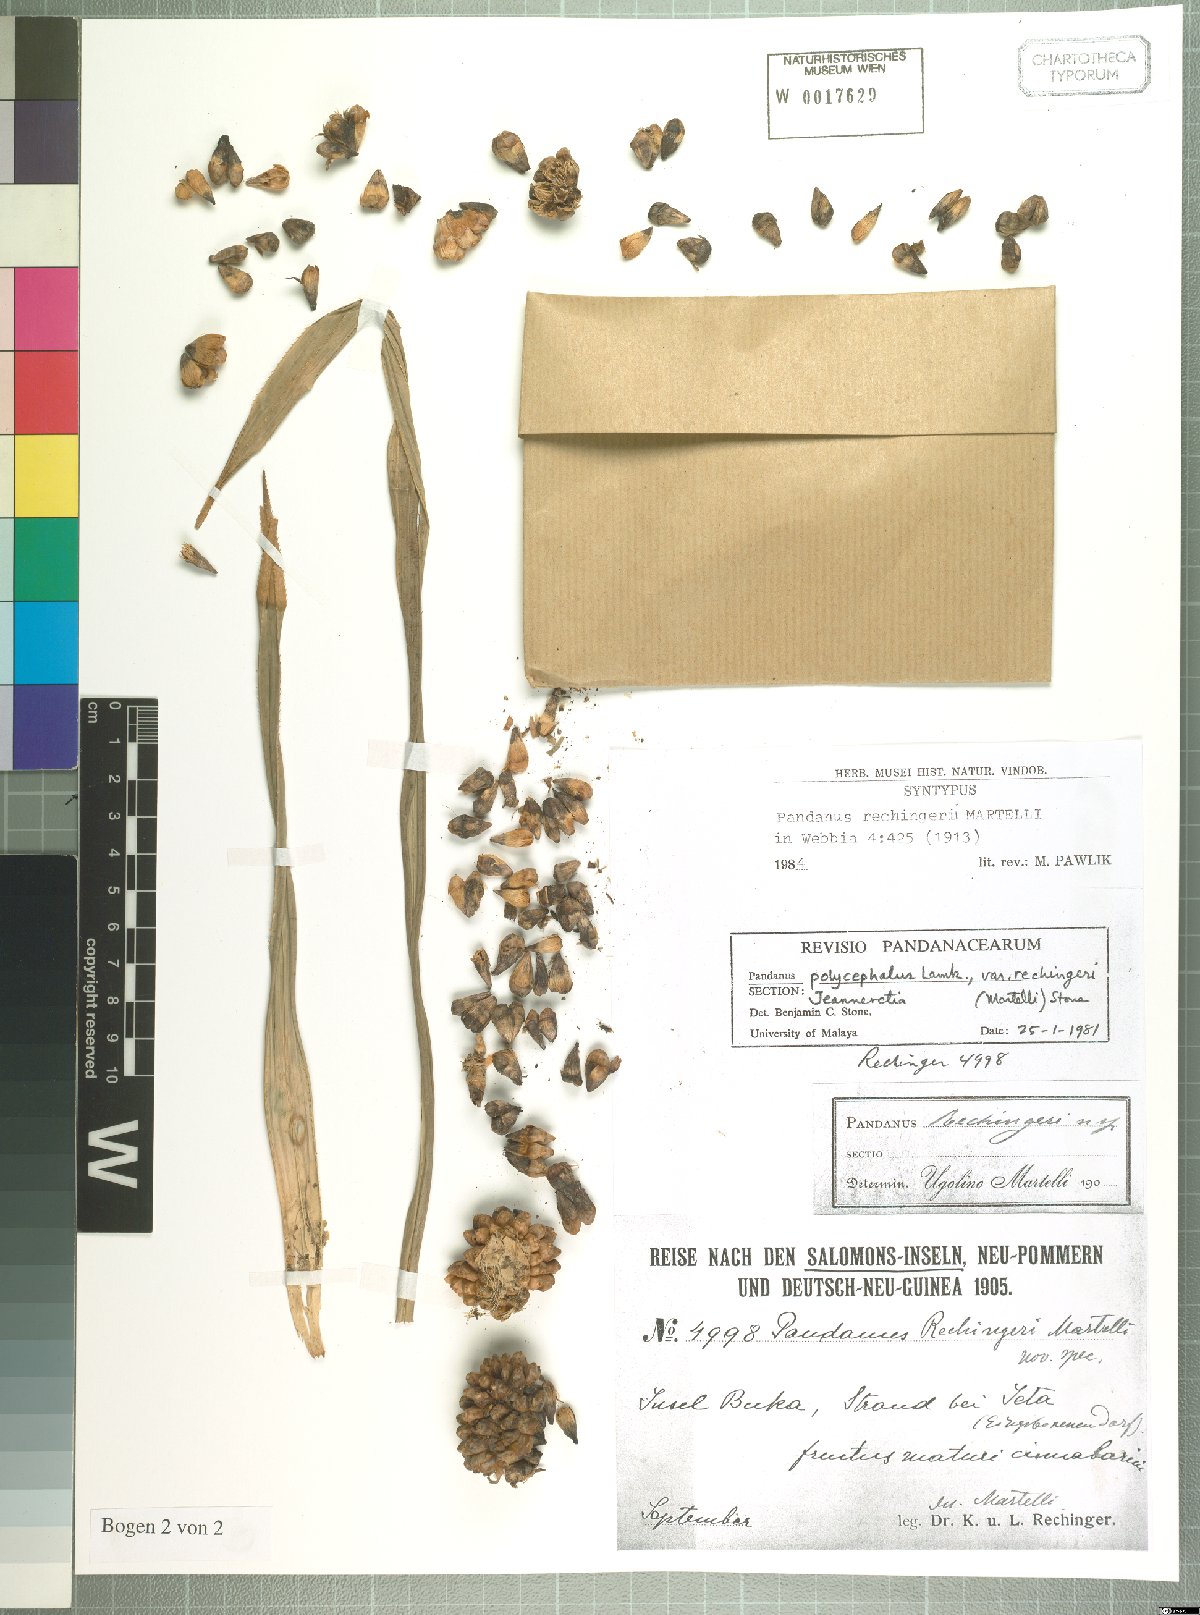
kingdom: Plantae
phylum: Tracheophyta
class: Liliopsida
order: Pandanales
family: Pandanaceae
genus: Pandanus
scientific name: Pandanus polycephalus
